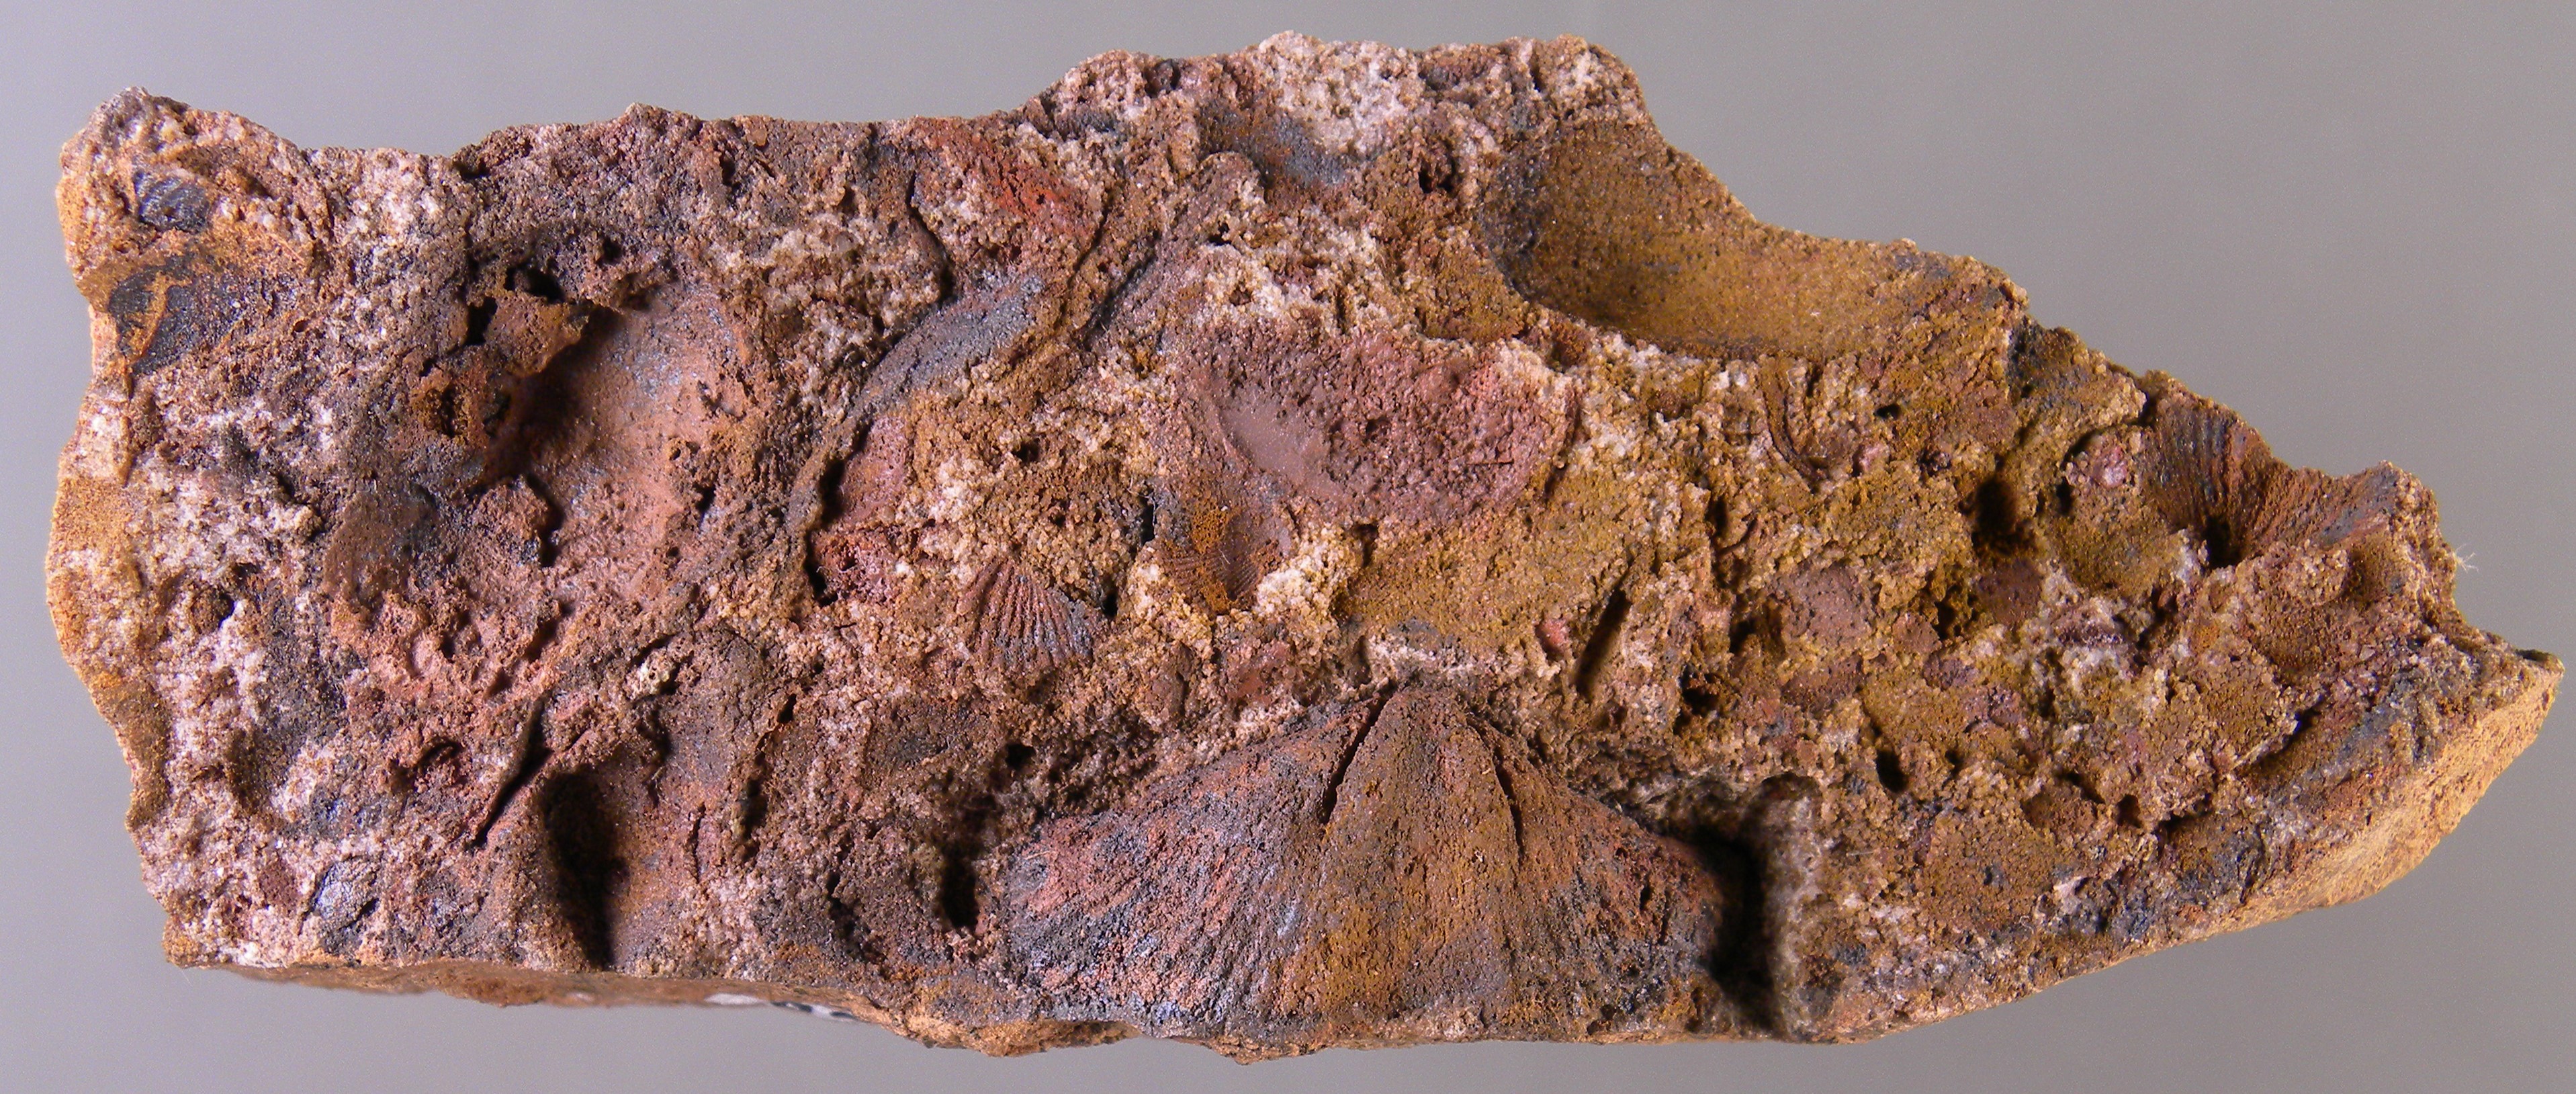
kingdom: Animalia
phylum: Mollusca
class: Bivalvia
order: Modiomorphida
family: Modiomorphidae
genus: Modiomorpha
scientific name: Modiomorpha
